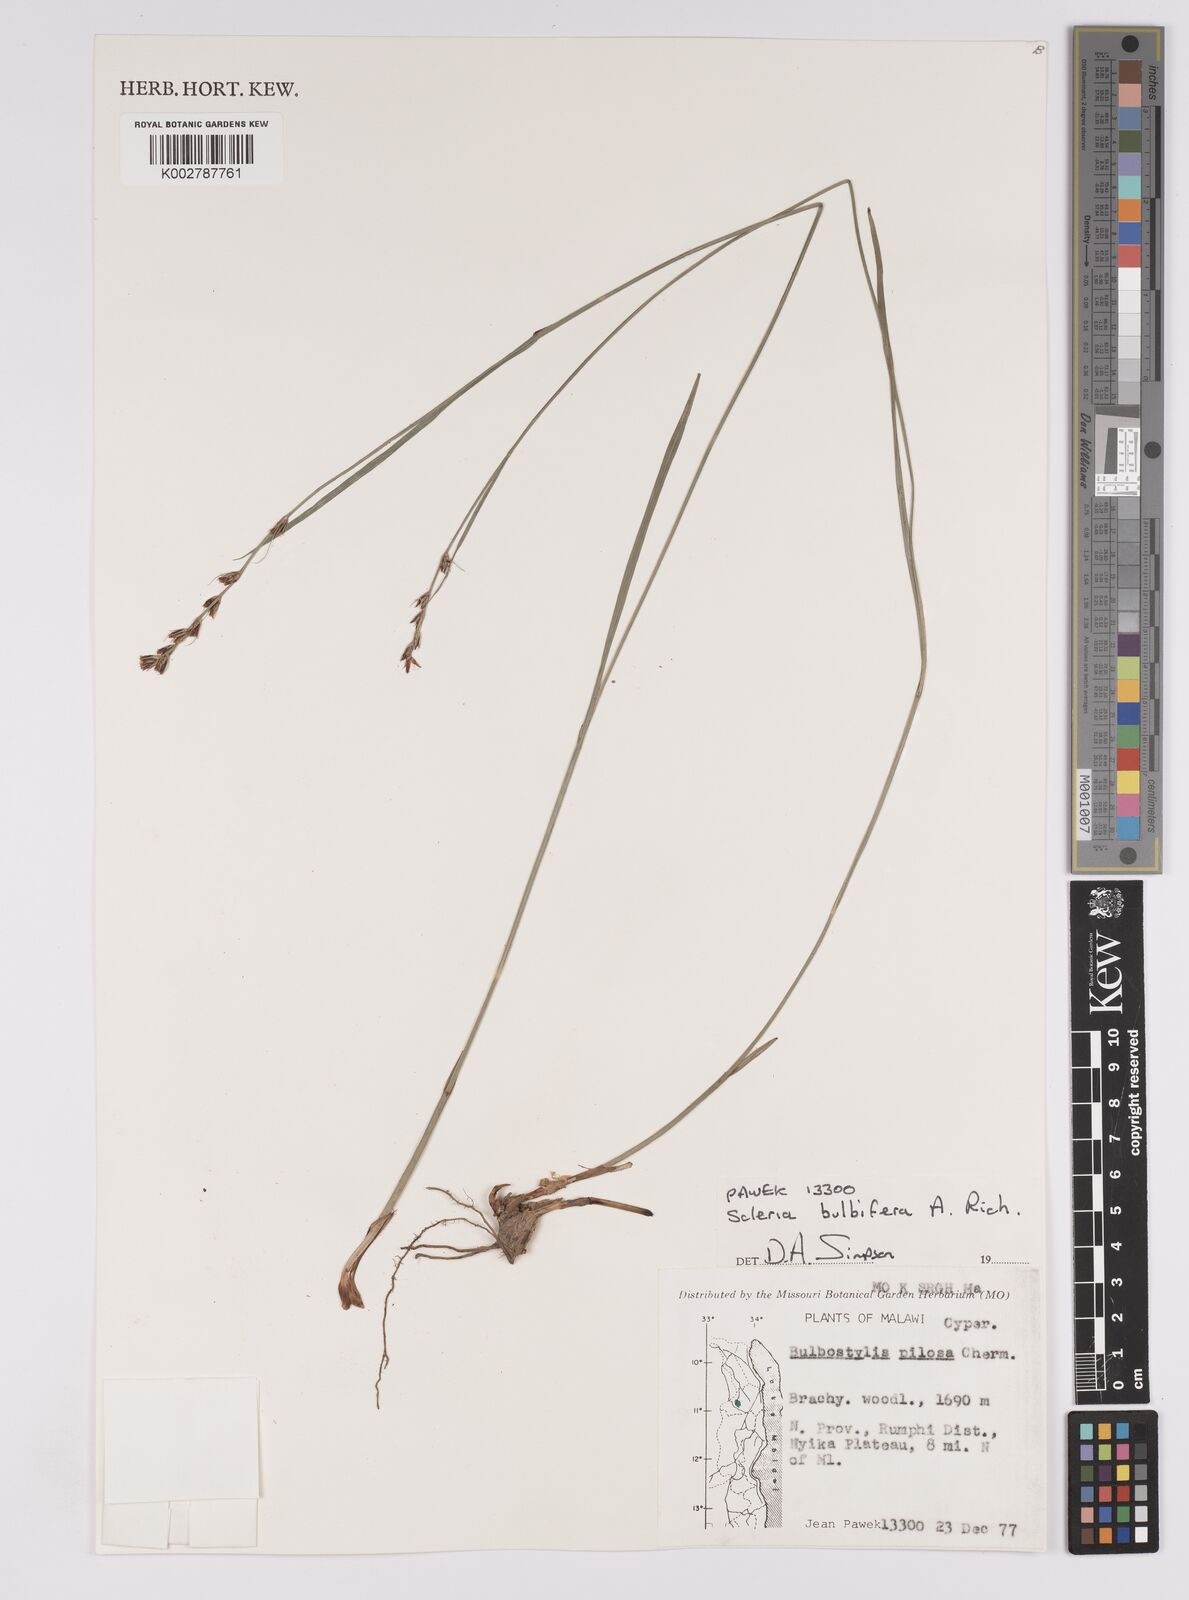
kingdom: Plantae
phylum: Tracheophyta
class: Liliopsida
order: Poales
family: Cyperaceae
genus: Scleria
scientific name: Scleria bulbifera
